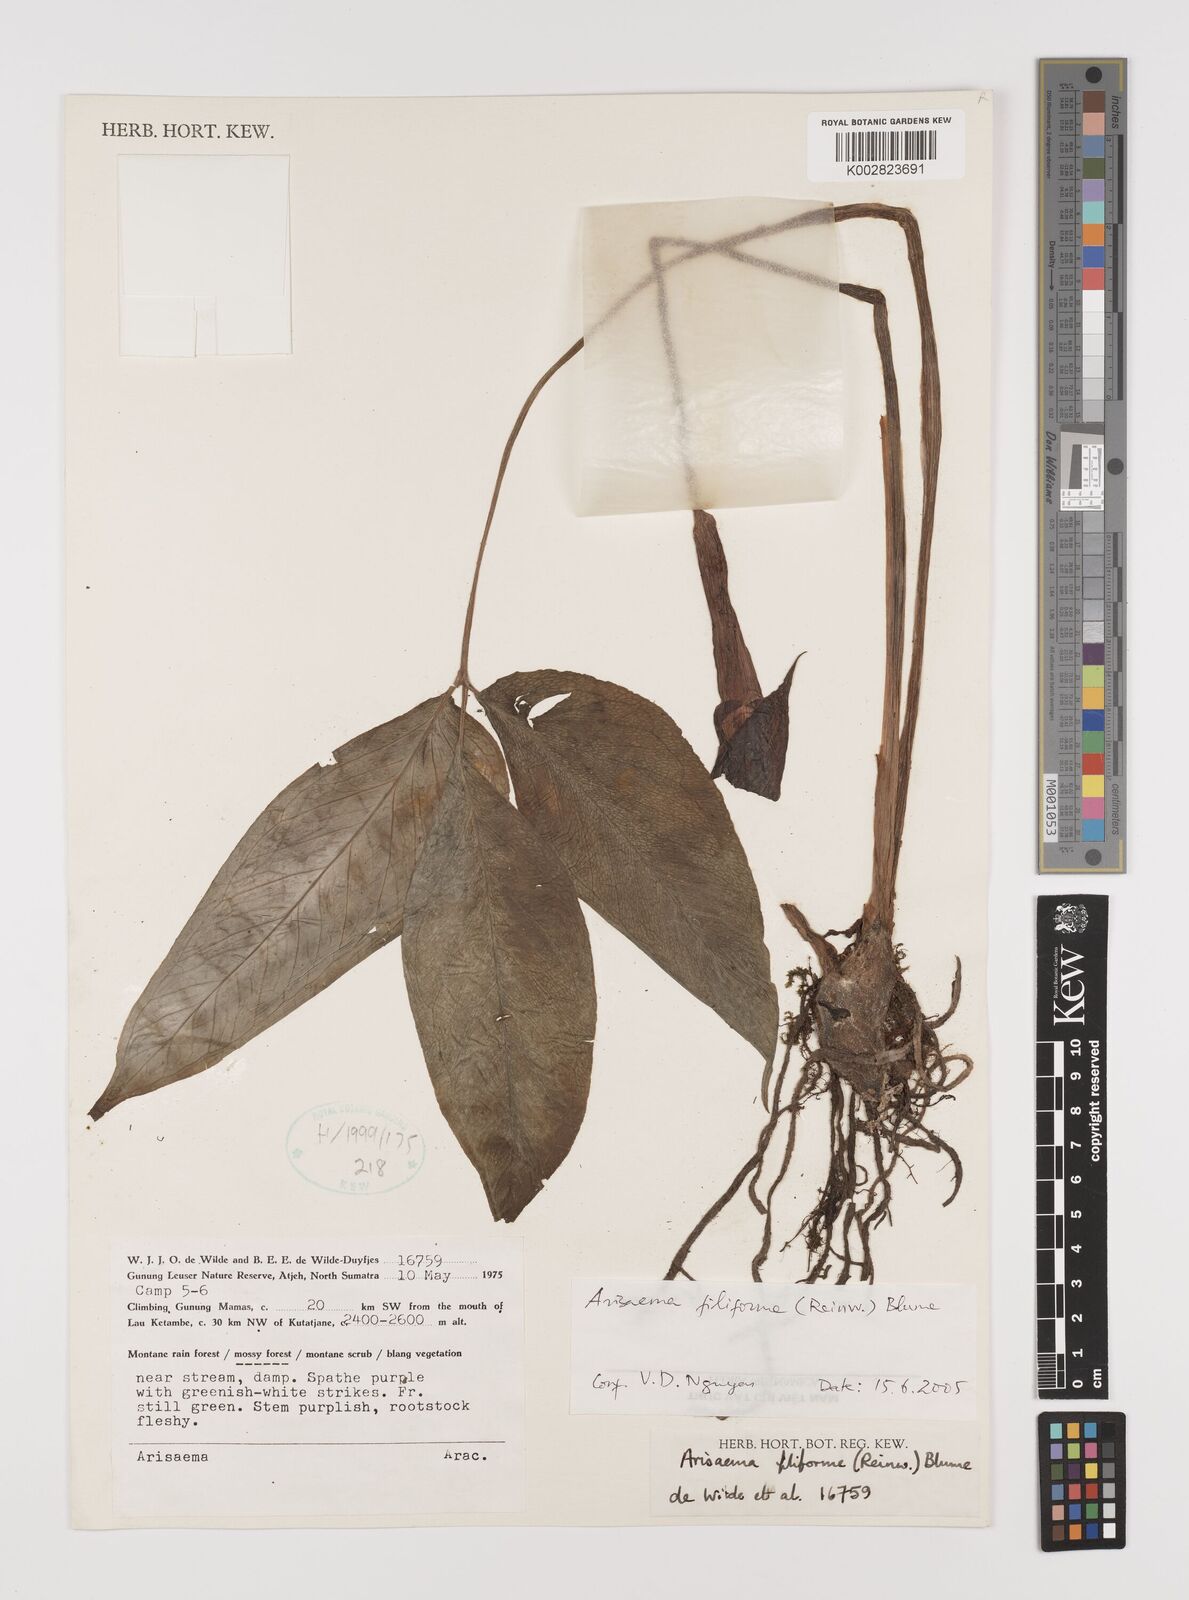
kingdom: Plantae
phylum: Tracheophyta
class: Liliopsida
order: Alismatales
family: Araceae
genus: Arisaema
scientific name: Arisaema filiforme
